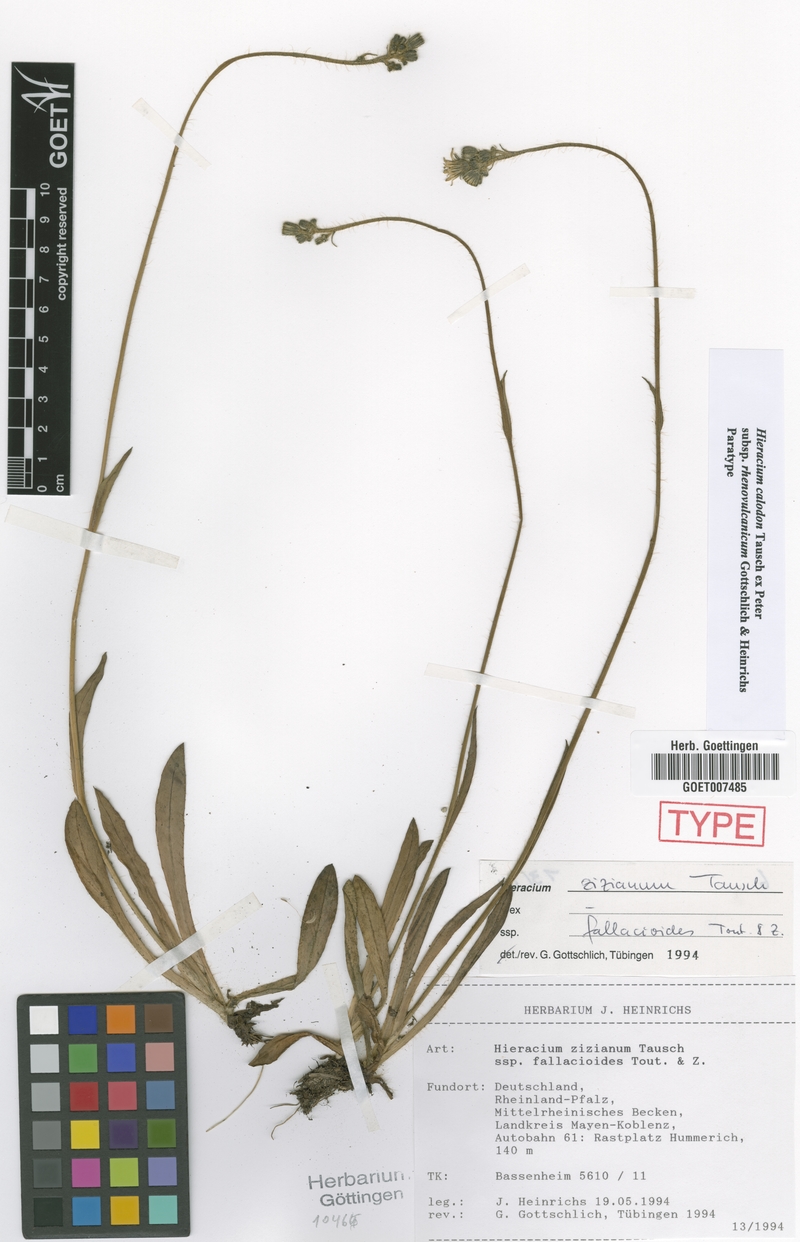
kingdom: Plantae
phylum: Tracheophyta
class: Magnoliopsida
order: Asterales
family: Asteraceae
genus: Pilosella
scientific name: Pilosella calodon
